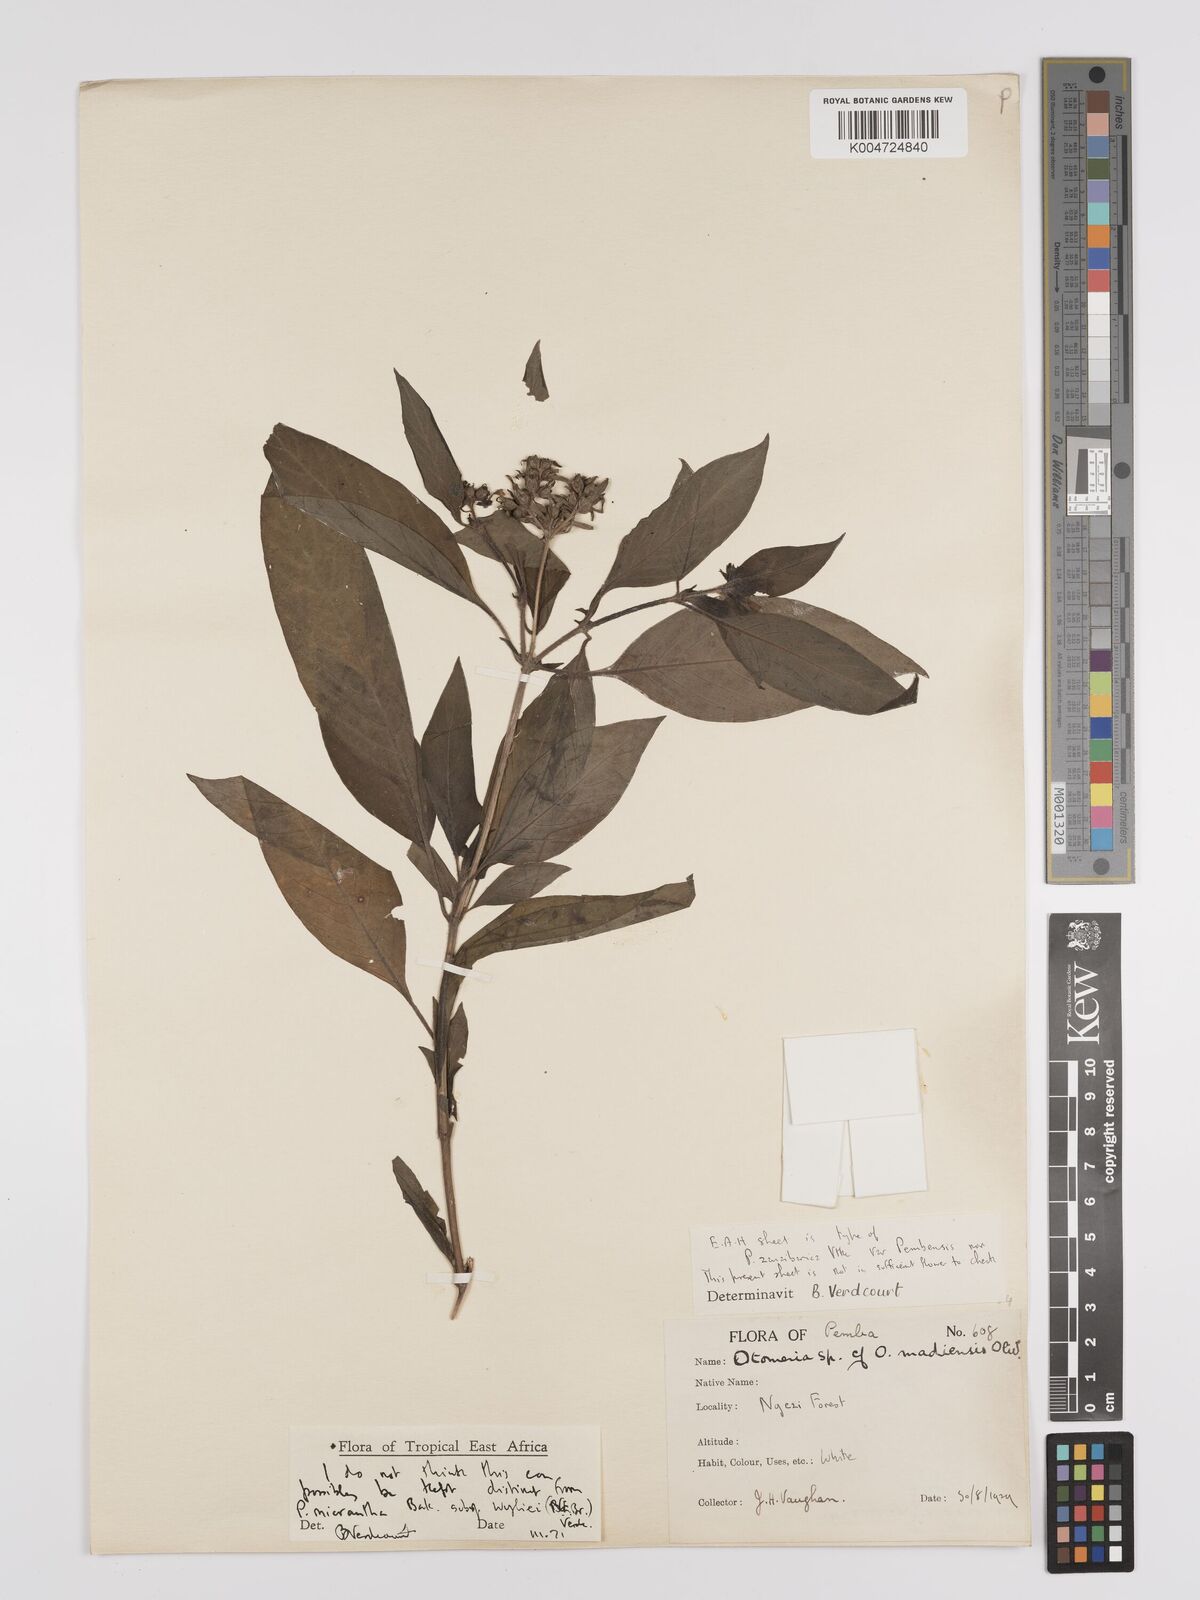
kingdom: Plantae
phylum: Tracheophyta
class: Magnoliopsida
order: Gentianales
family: Rubiaceae
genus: Pentas
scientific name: Pentas micrantha
